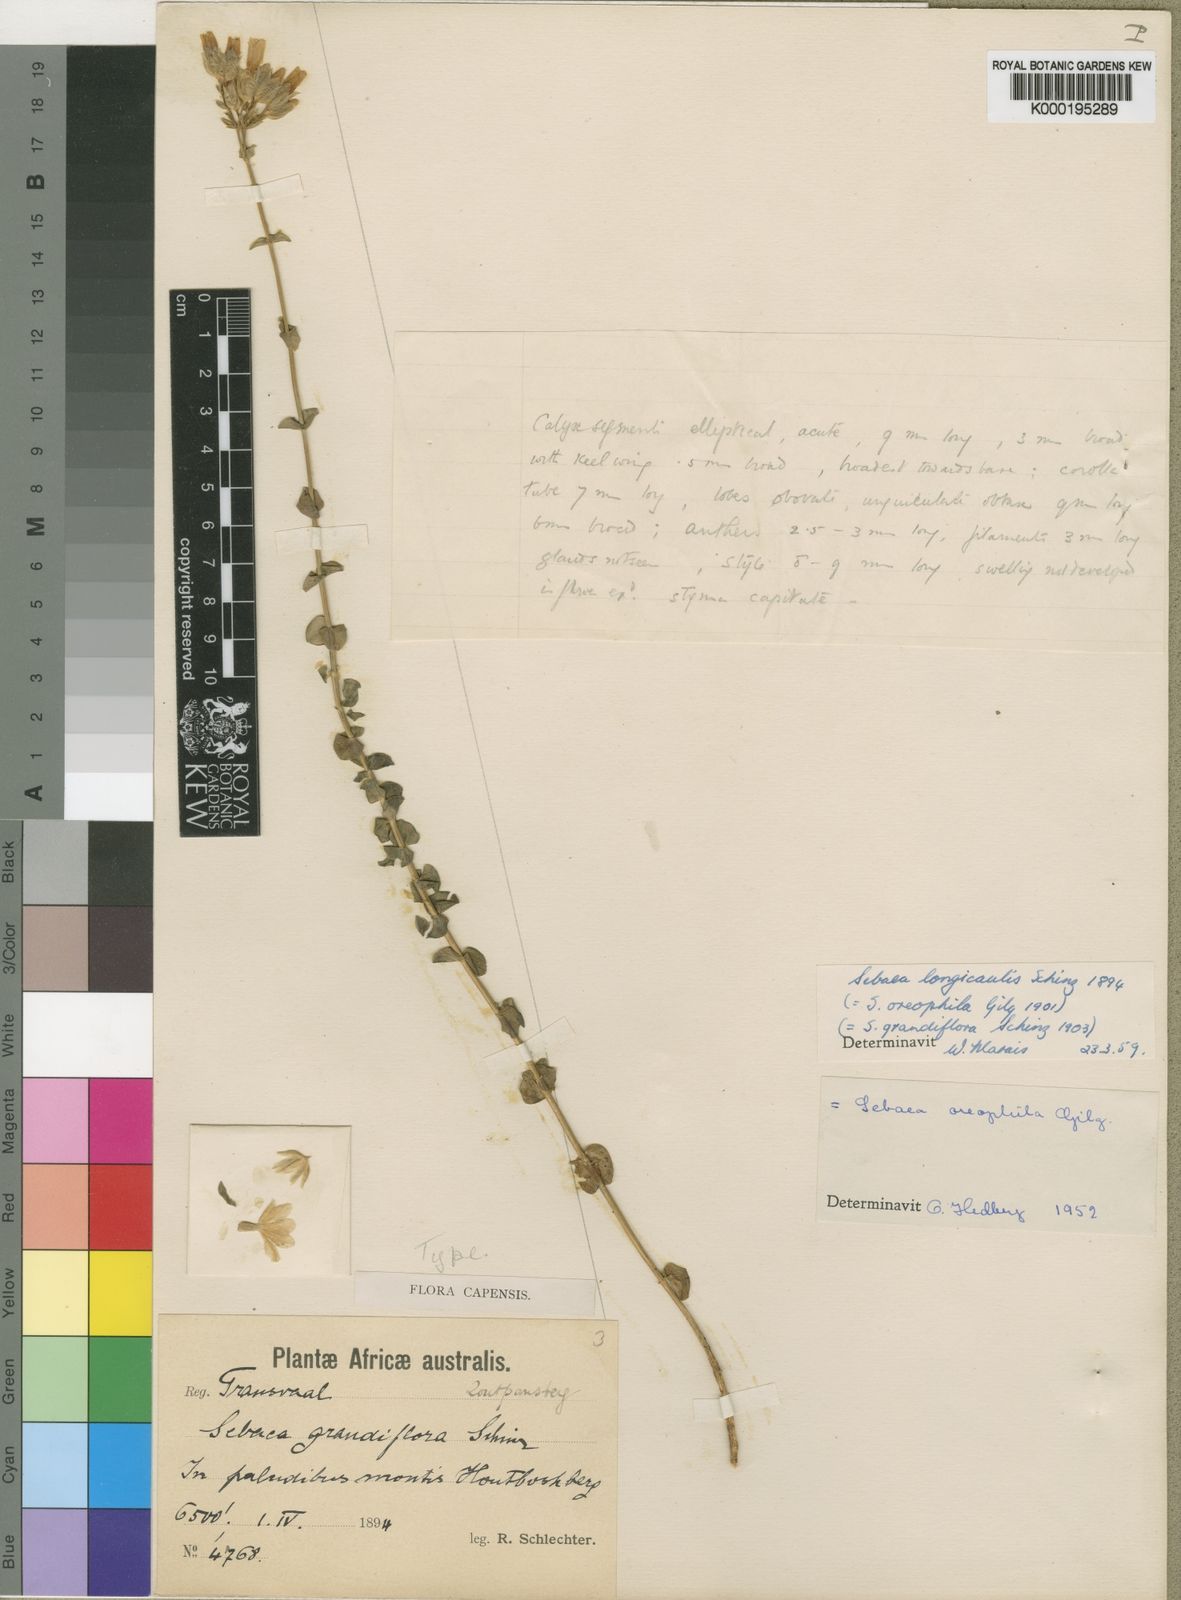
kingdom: Plantae
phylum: Tracheophyta
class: Magnoliopsida
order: Gentianales
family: Gentianaceae
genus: Sebaea
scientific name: Sebaea longicaulis
